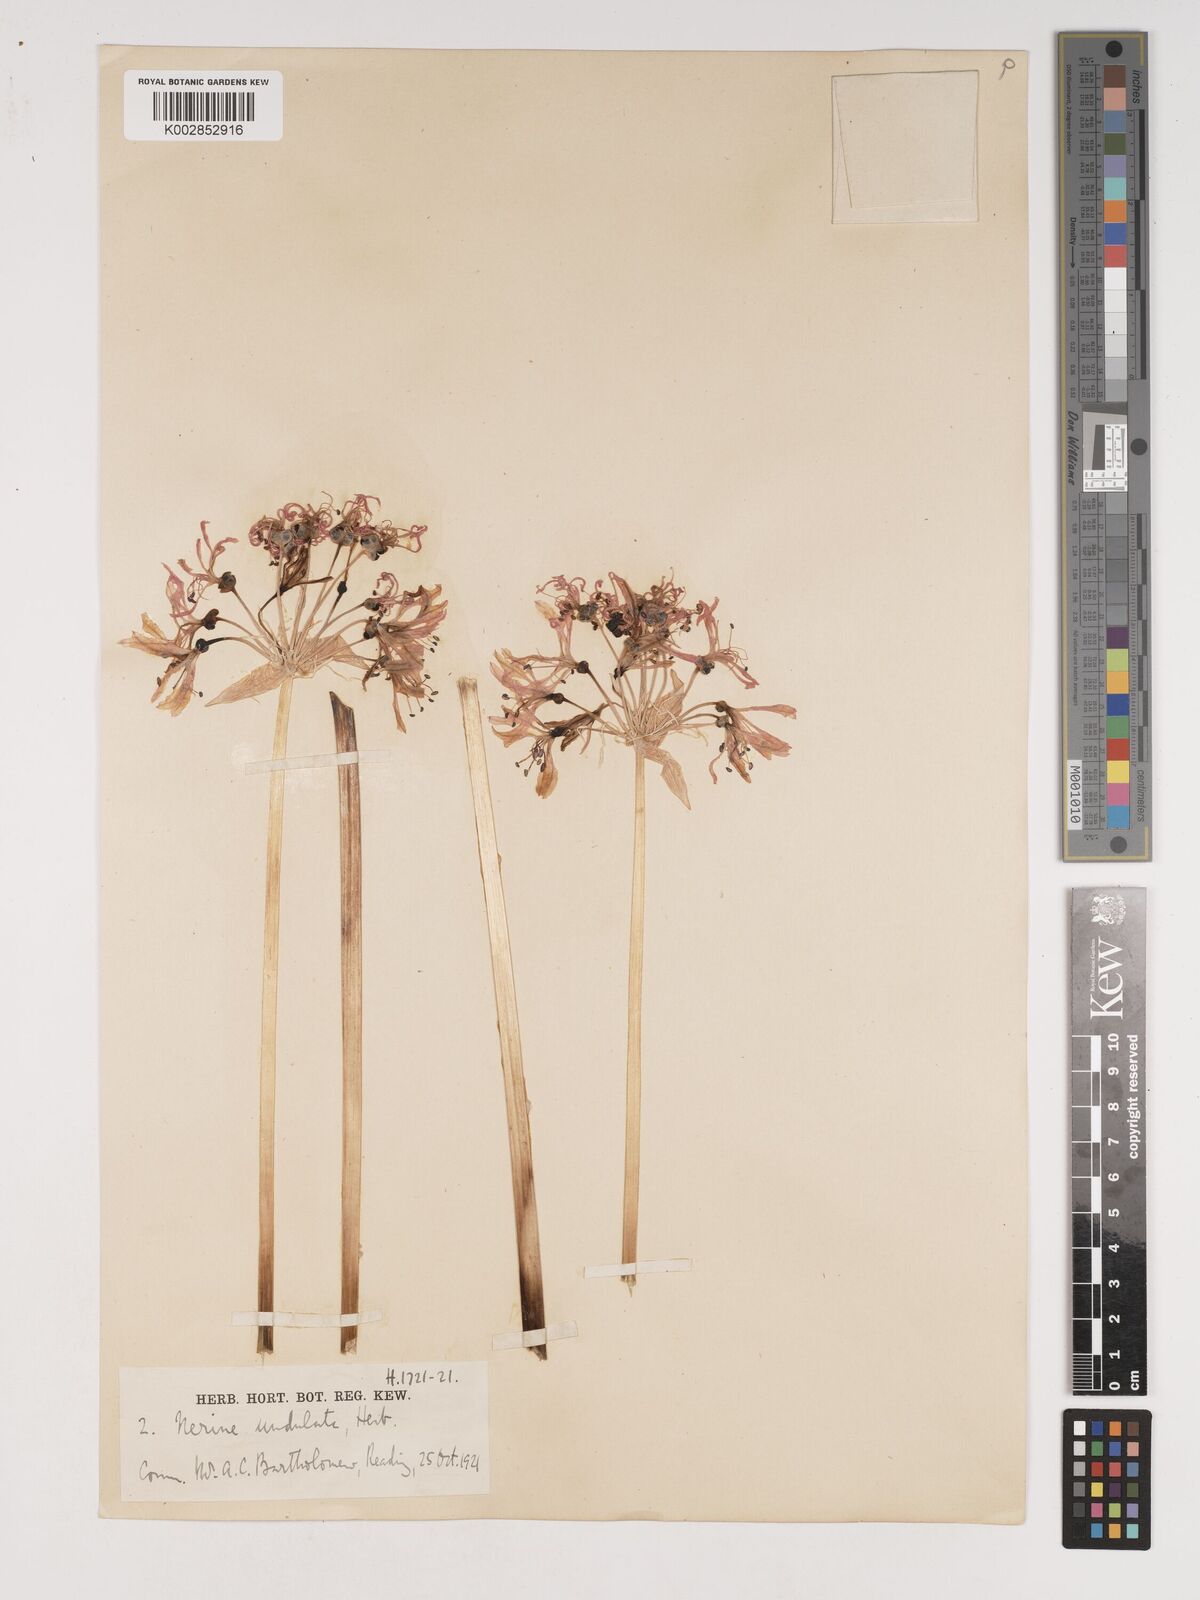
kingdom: Plantae
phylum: Tracheophyta
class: Liliopsida
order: Asparagales
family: Amaryllidaceae
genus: Nerine
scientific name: Nerine undulata
